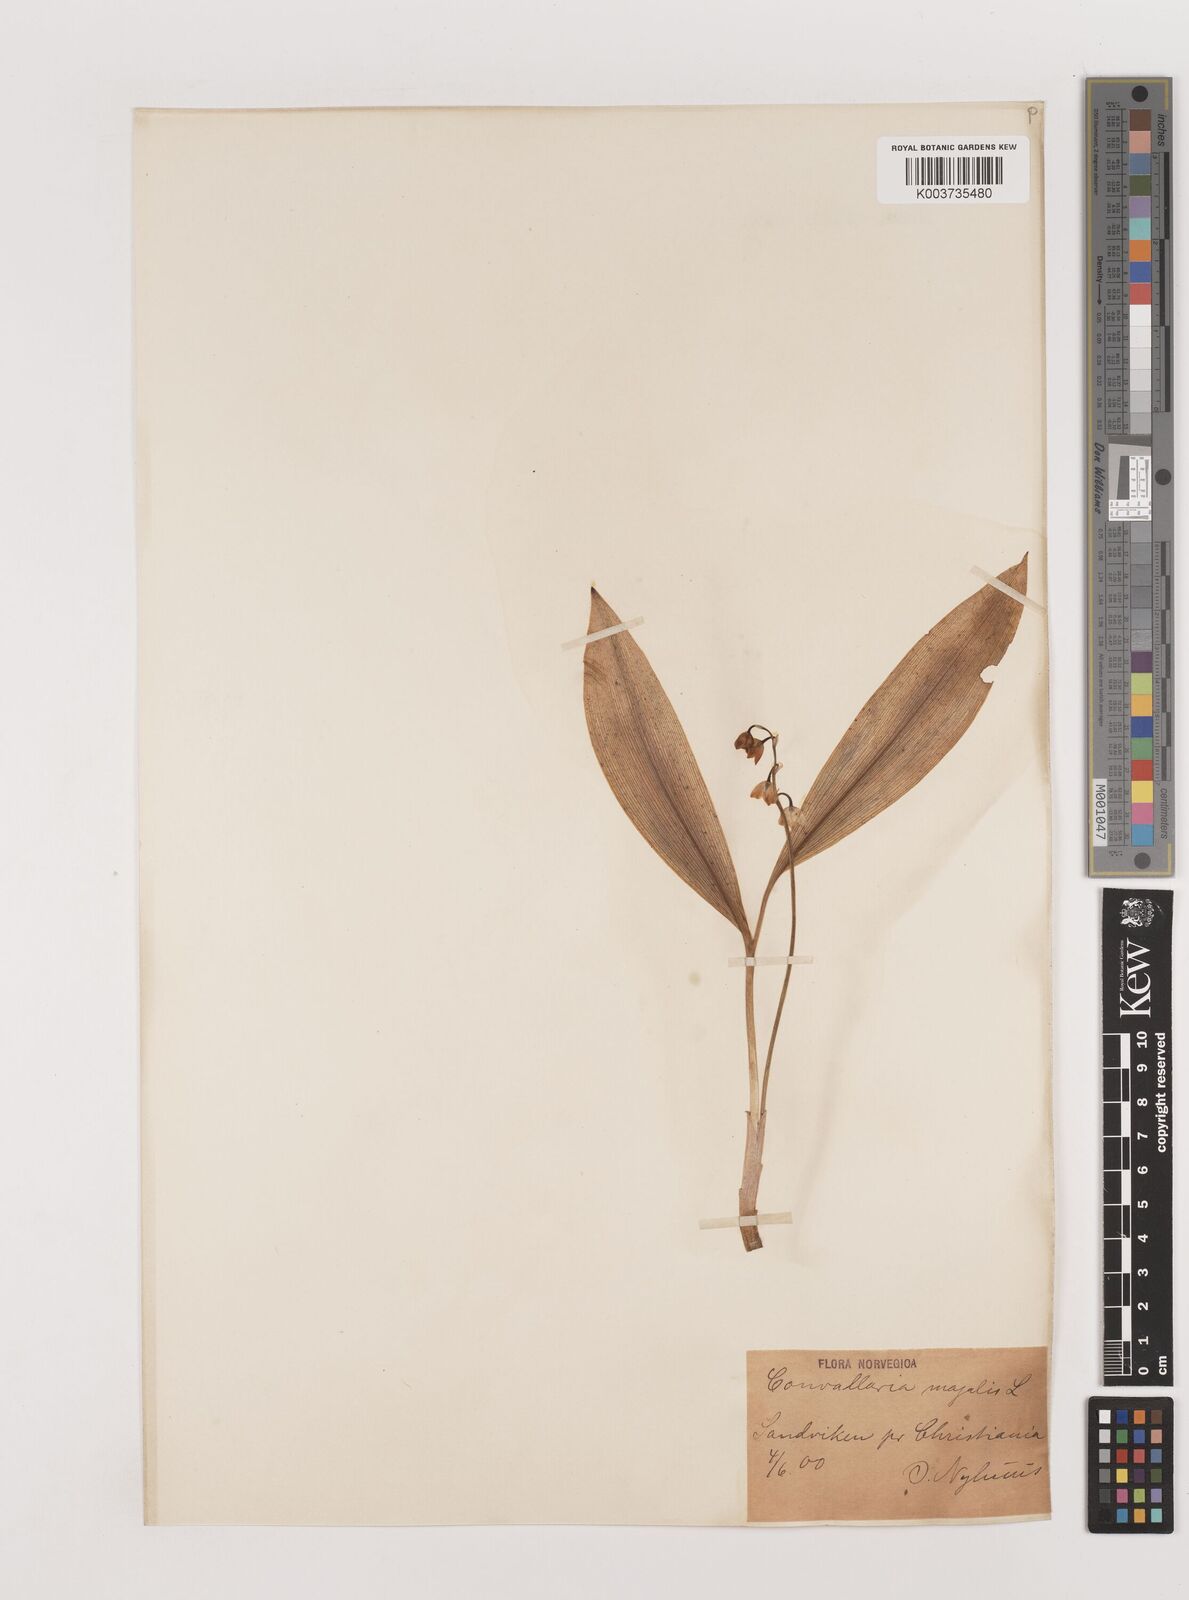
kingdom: Plantae
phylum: Tracheophyta
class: Liliopsida
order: Asparagales
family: Asparagaceae
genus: Convallaria
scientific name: Convallaria majalis
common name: Lily-of-the-valley
